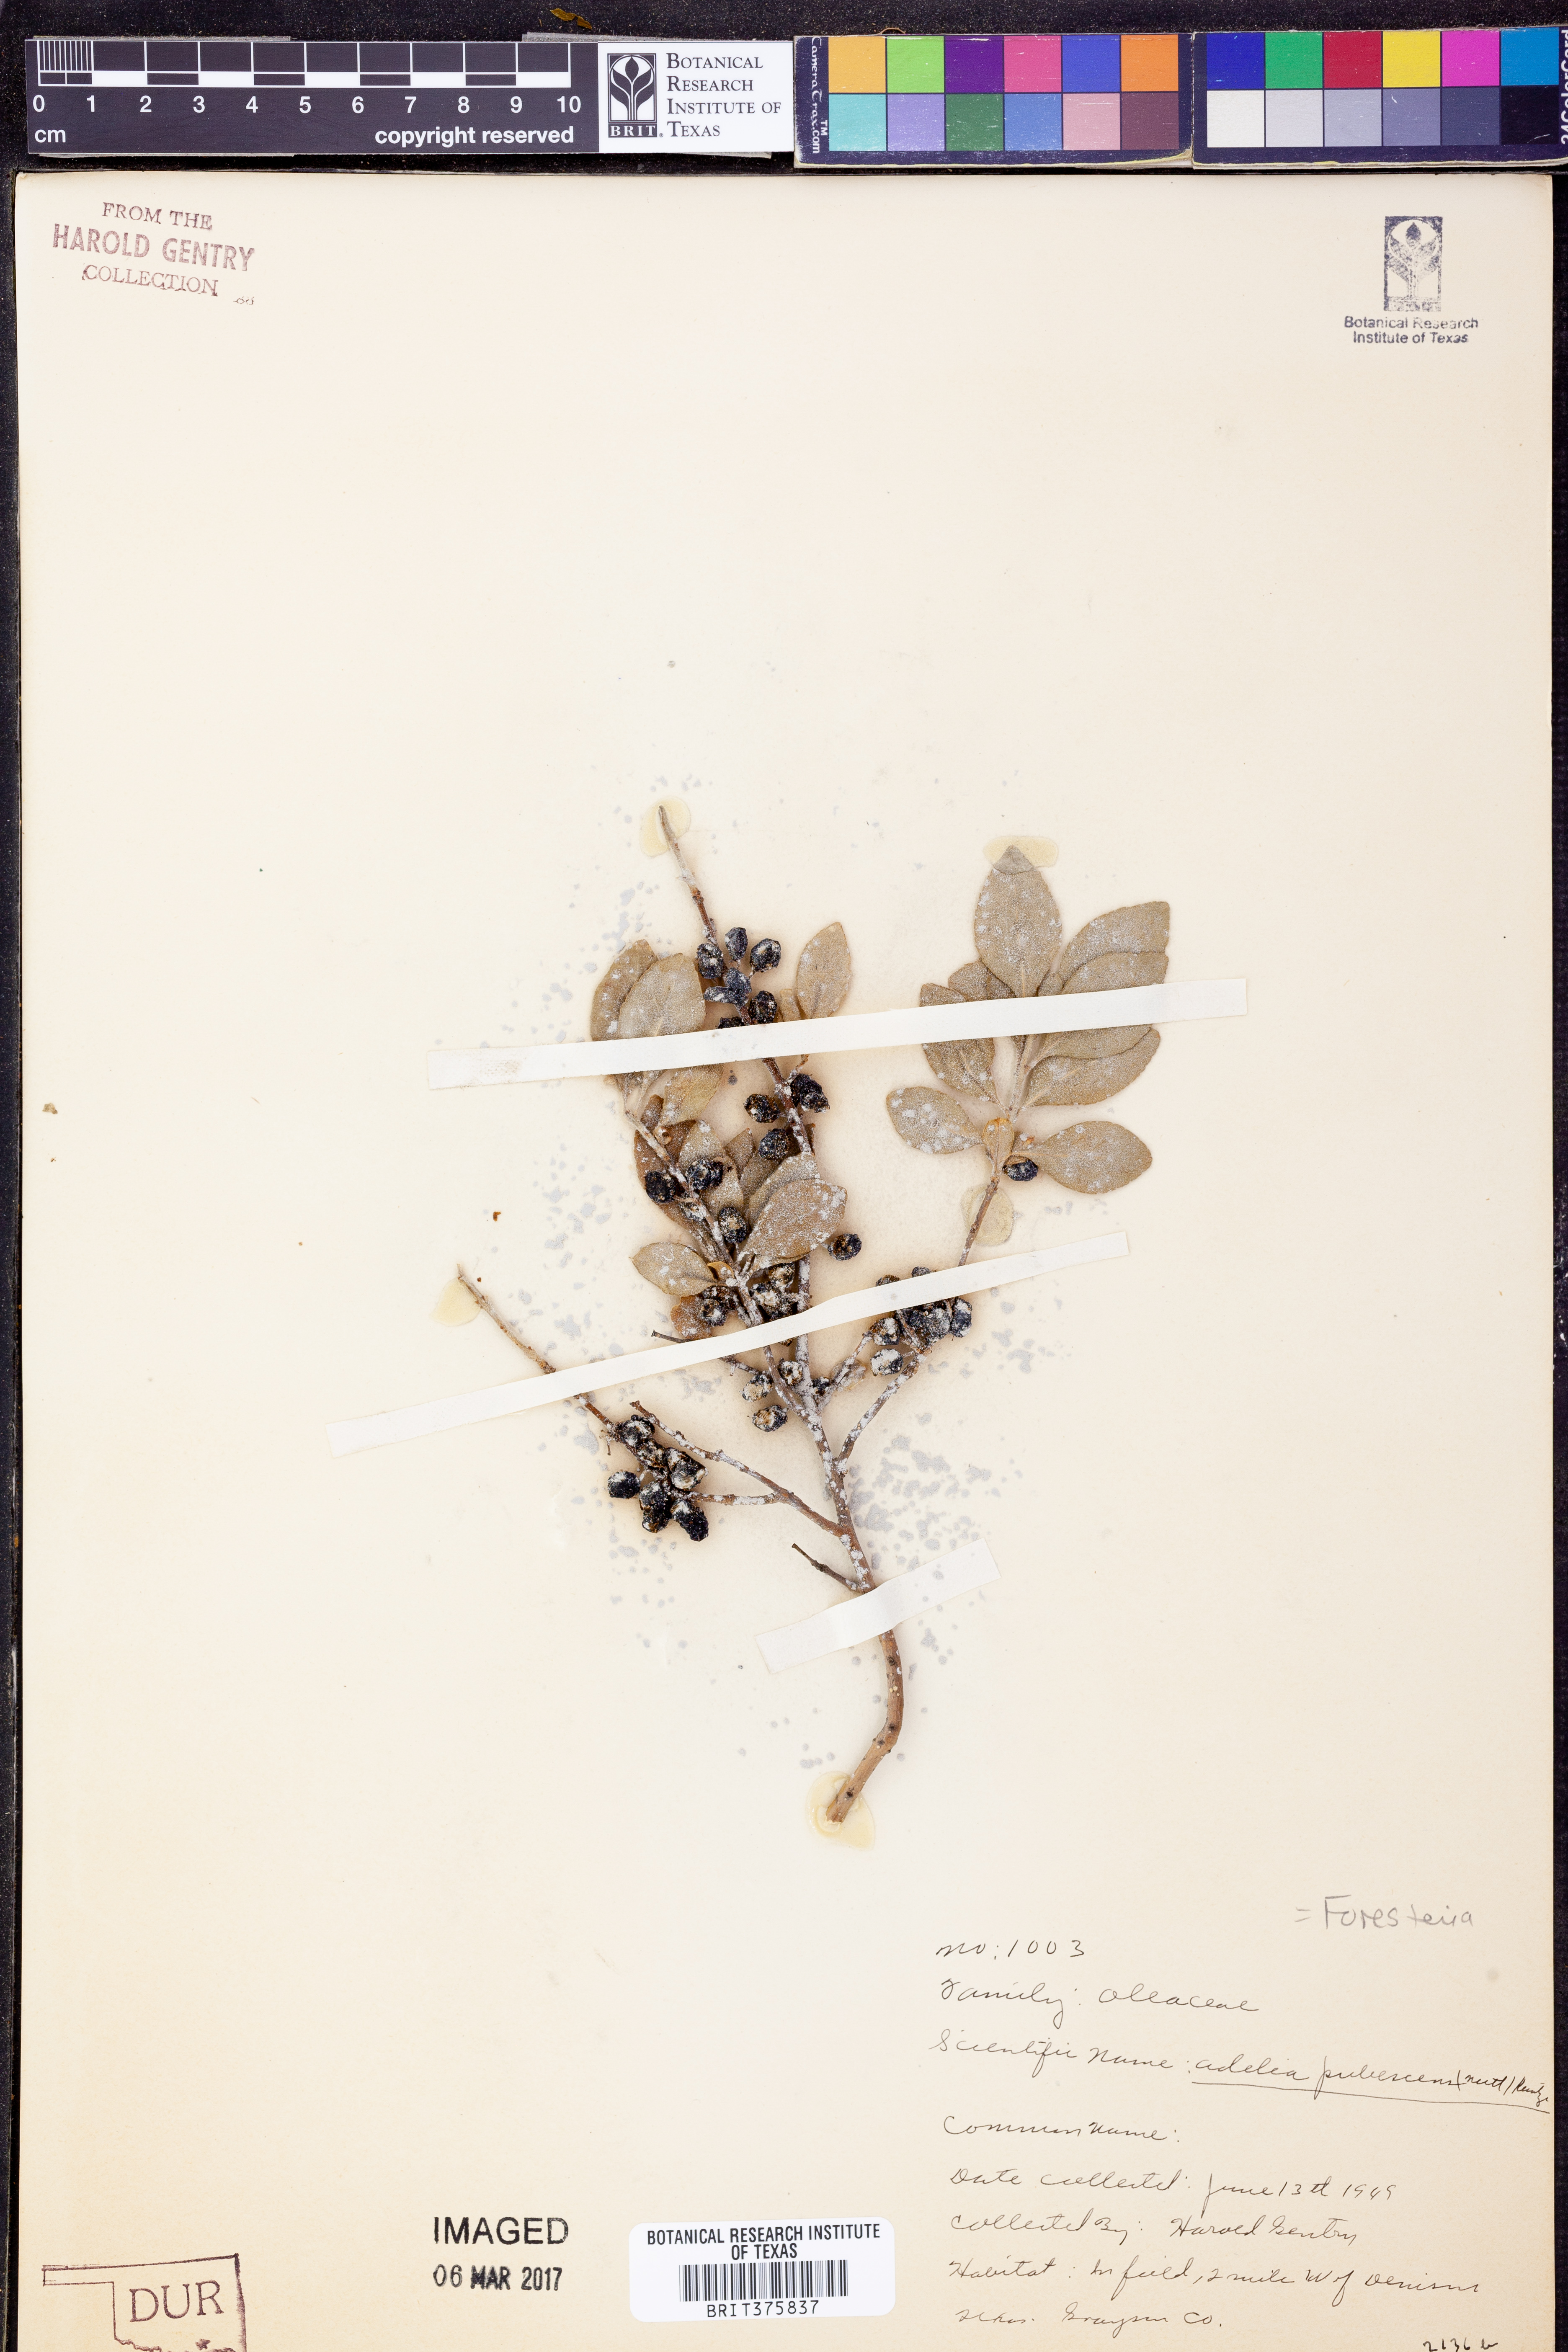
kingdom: Plantae
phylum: Tracheophyta
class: Magnoliopsida
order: Lamiales
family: Oleaceae
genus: Forestiera
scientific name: Forestiera pubescens
